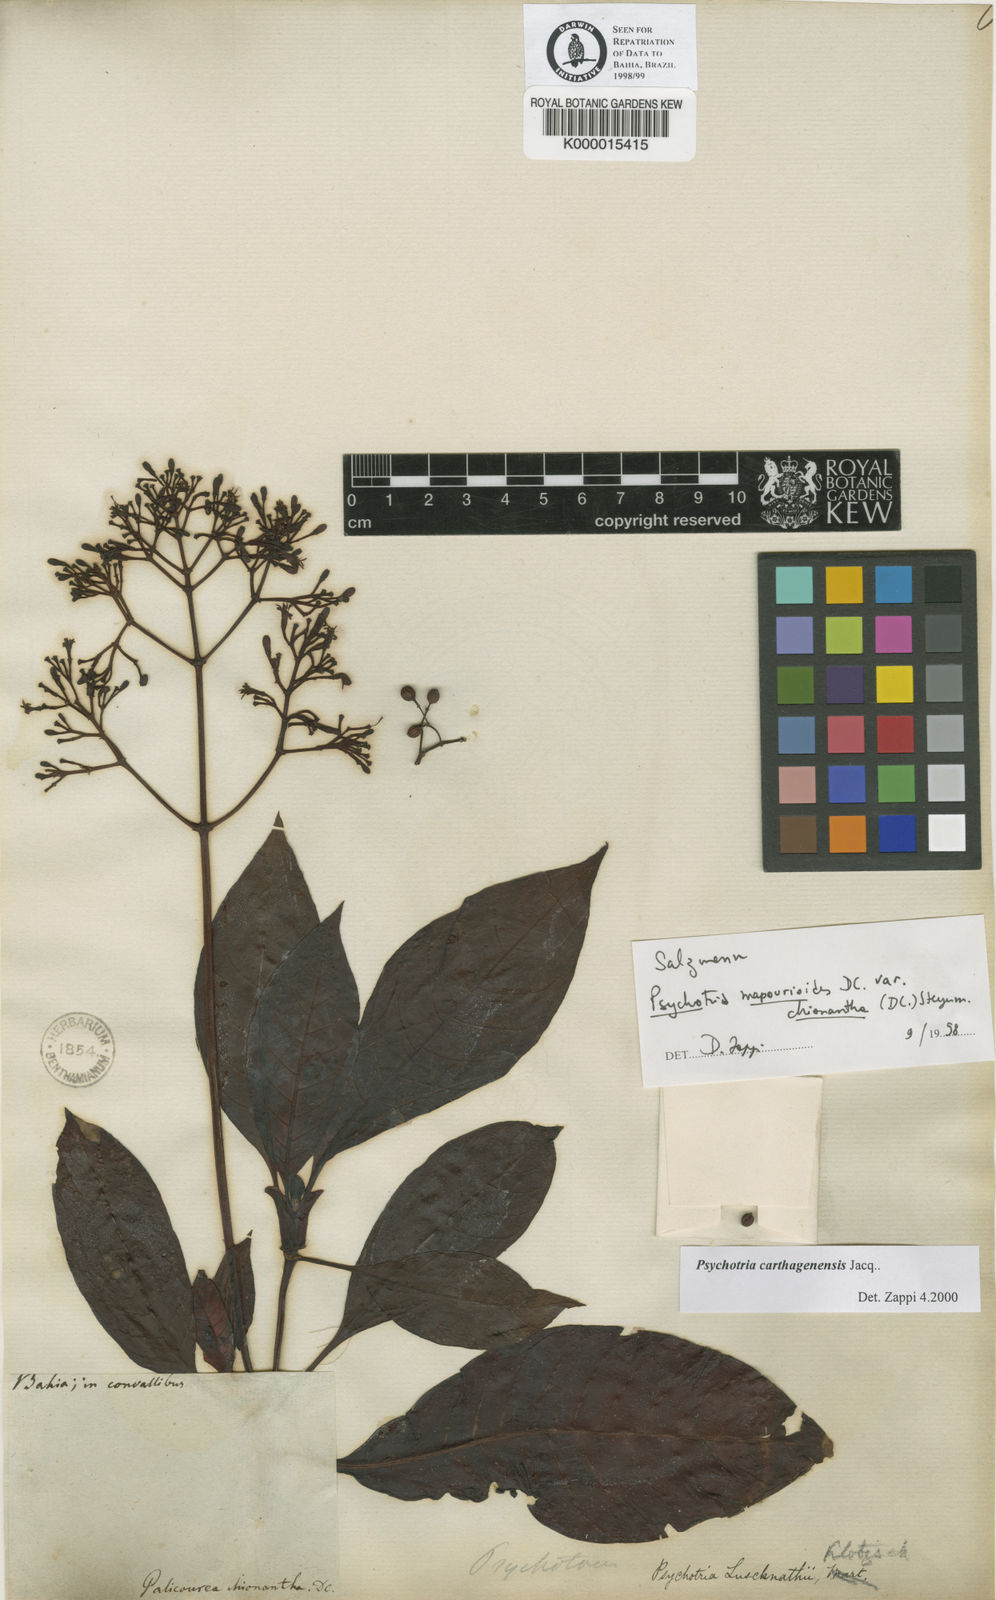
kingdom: Plantae
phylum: Tracheophyta
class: Magnoliopsida
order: Gentianales
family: Rubiaceae
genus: Psychotria
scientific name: Psychotria carthagenensis
